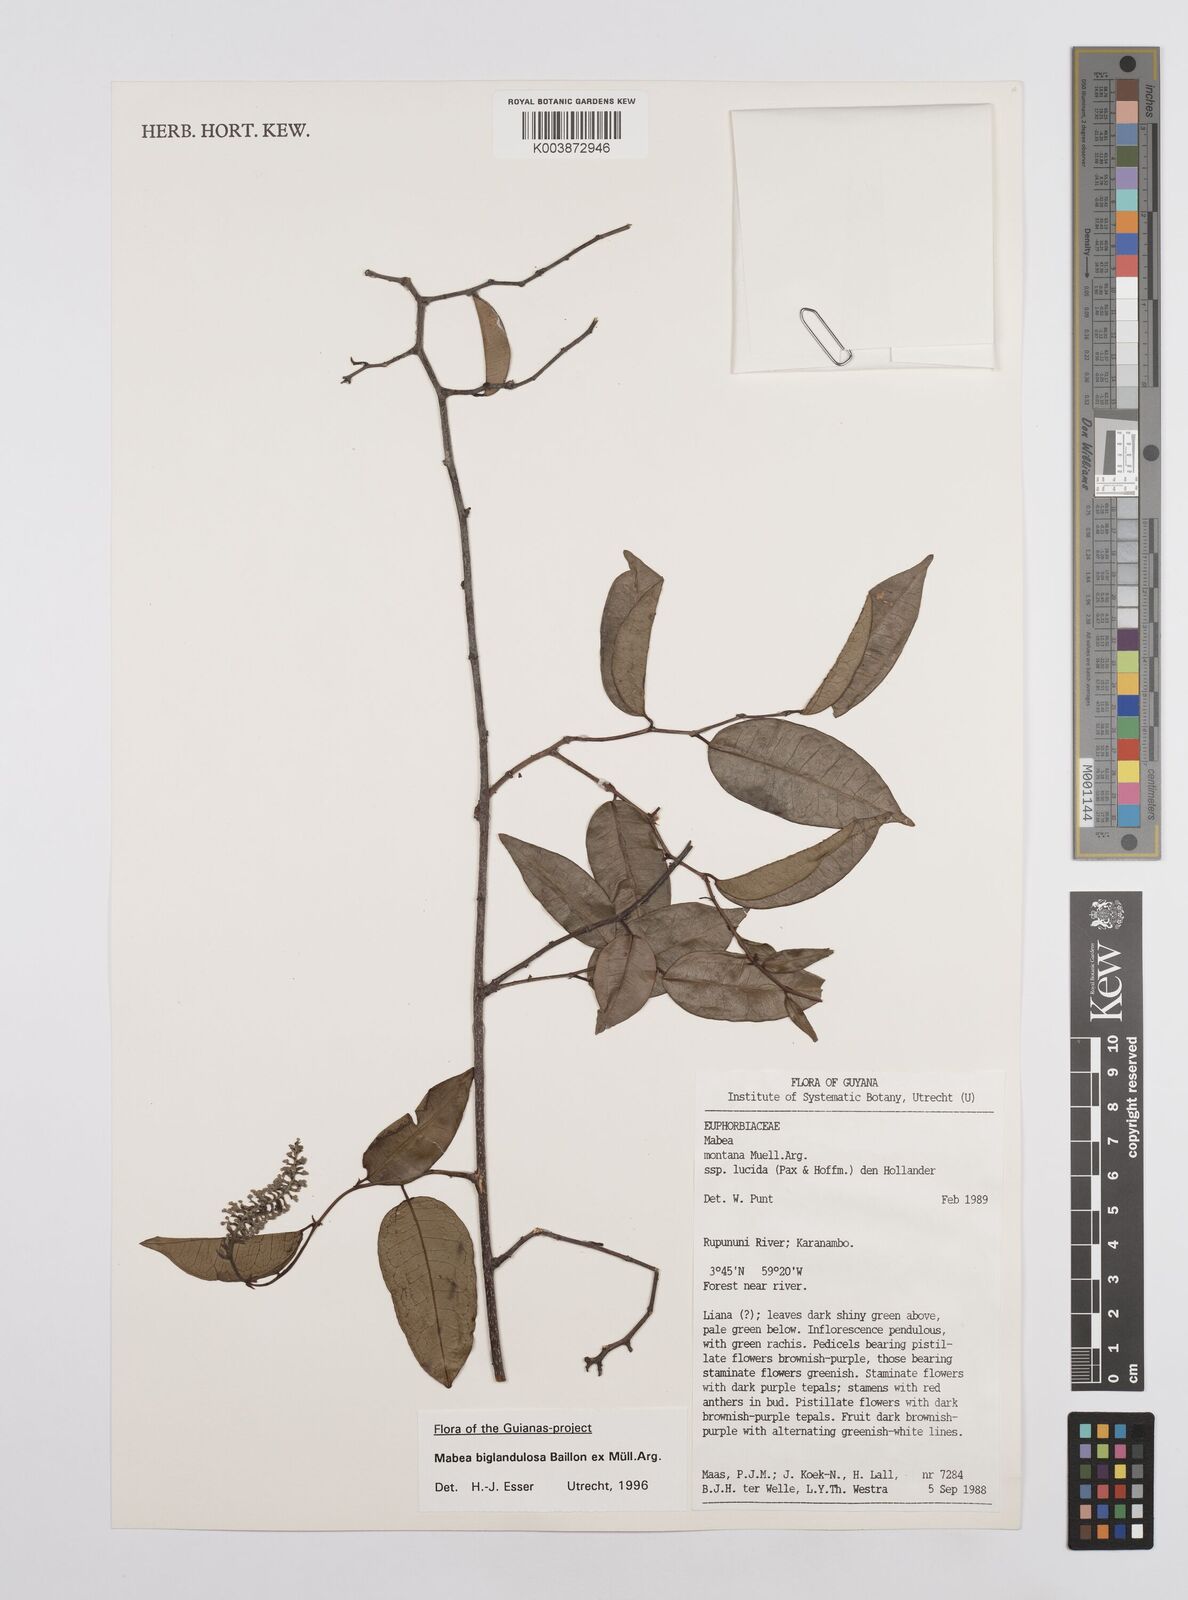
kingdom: Plantae
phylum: Tracheophyta
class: Magnoliopsida
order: Malpighiales
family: Euphorbiaceae
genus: Mabea
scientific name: Mabea biglandulosa
